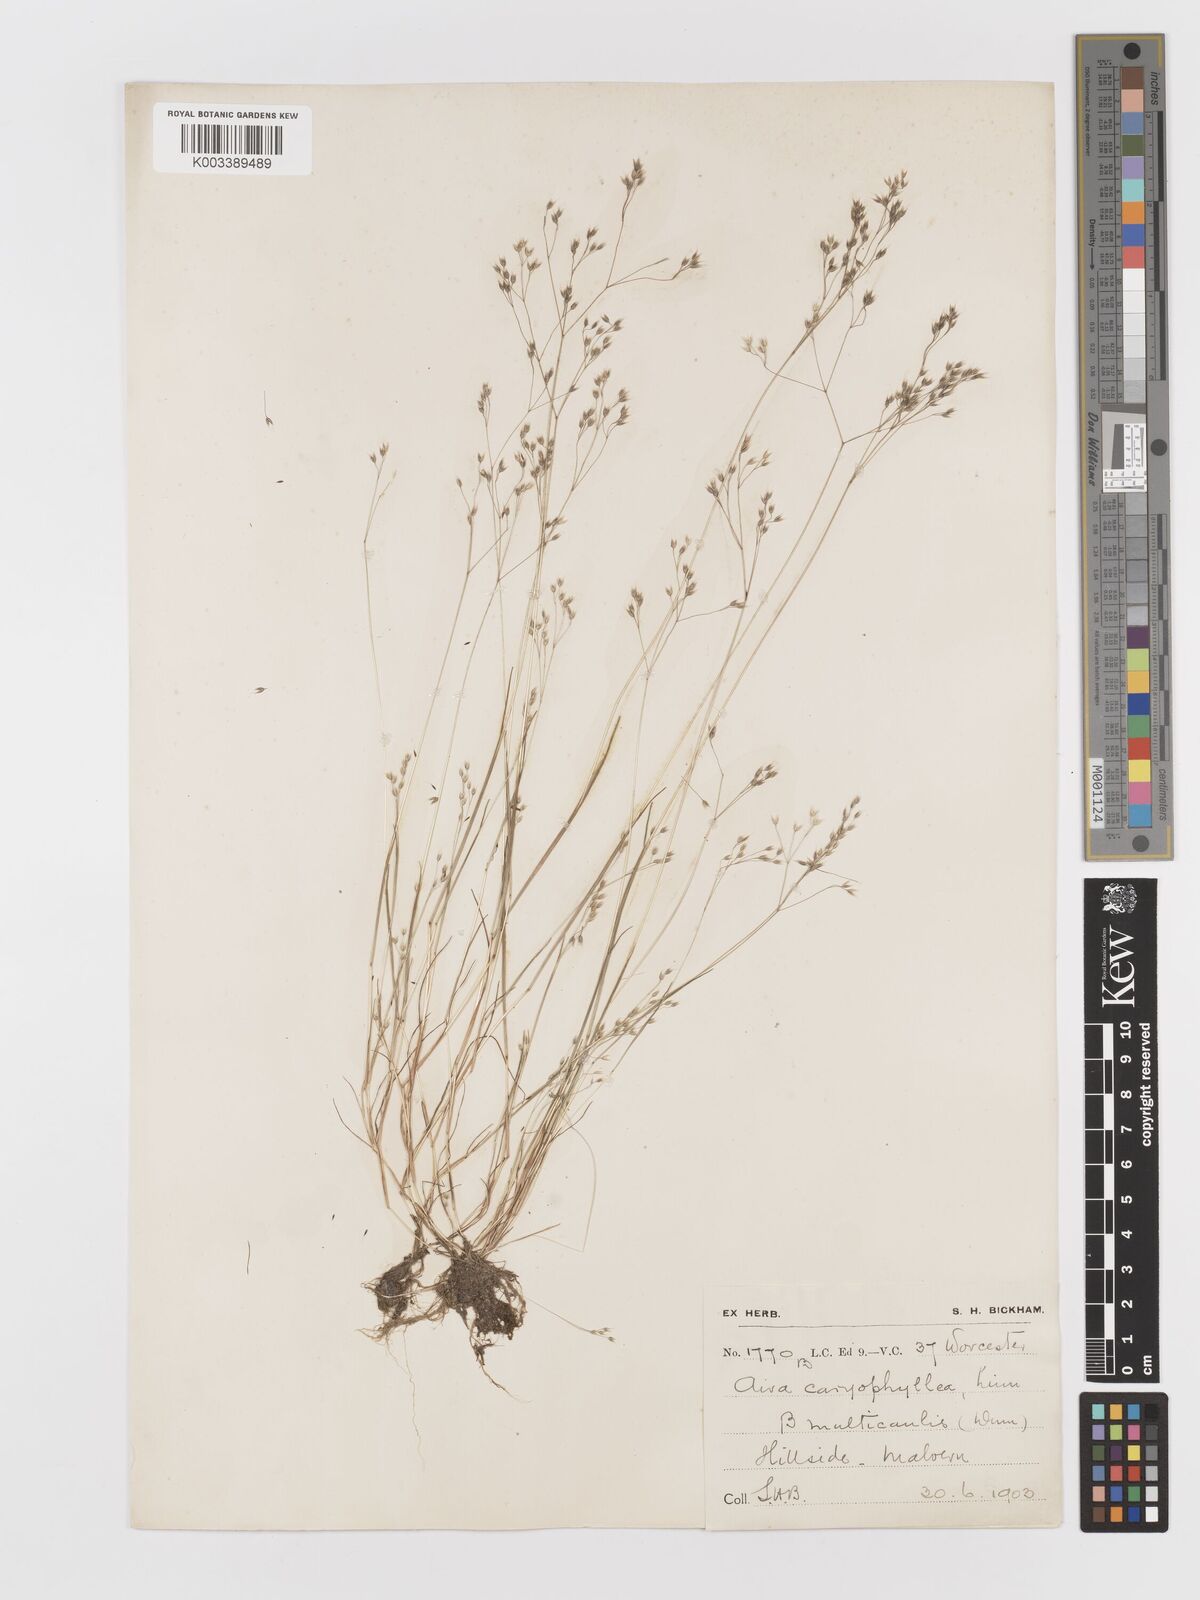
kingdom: Plantae
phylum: Tracheophyta
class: Liliopsida
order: Poales
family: Poaceae
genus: Aira
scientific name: Aira caryophyllea
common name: Silver hairgrass
